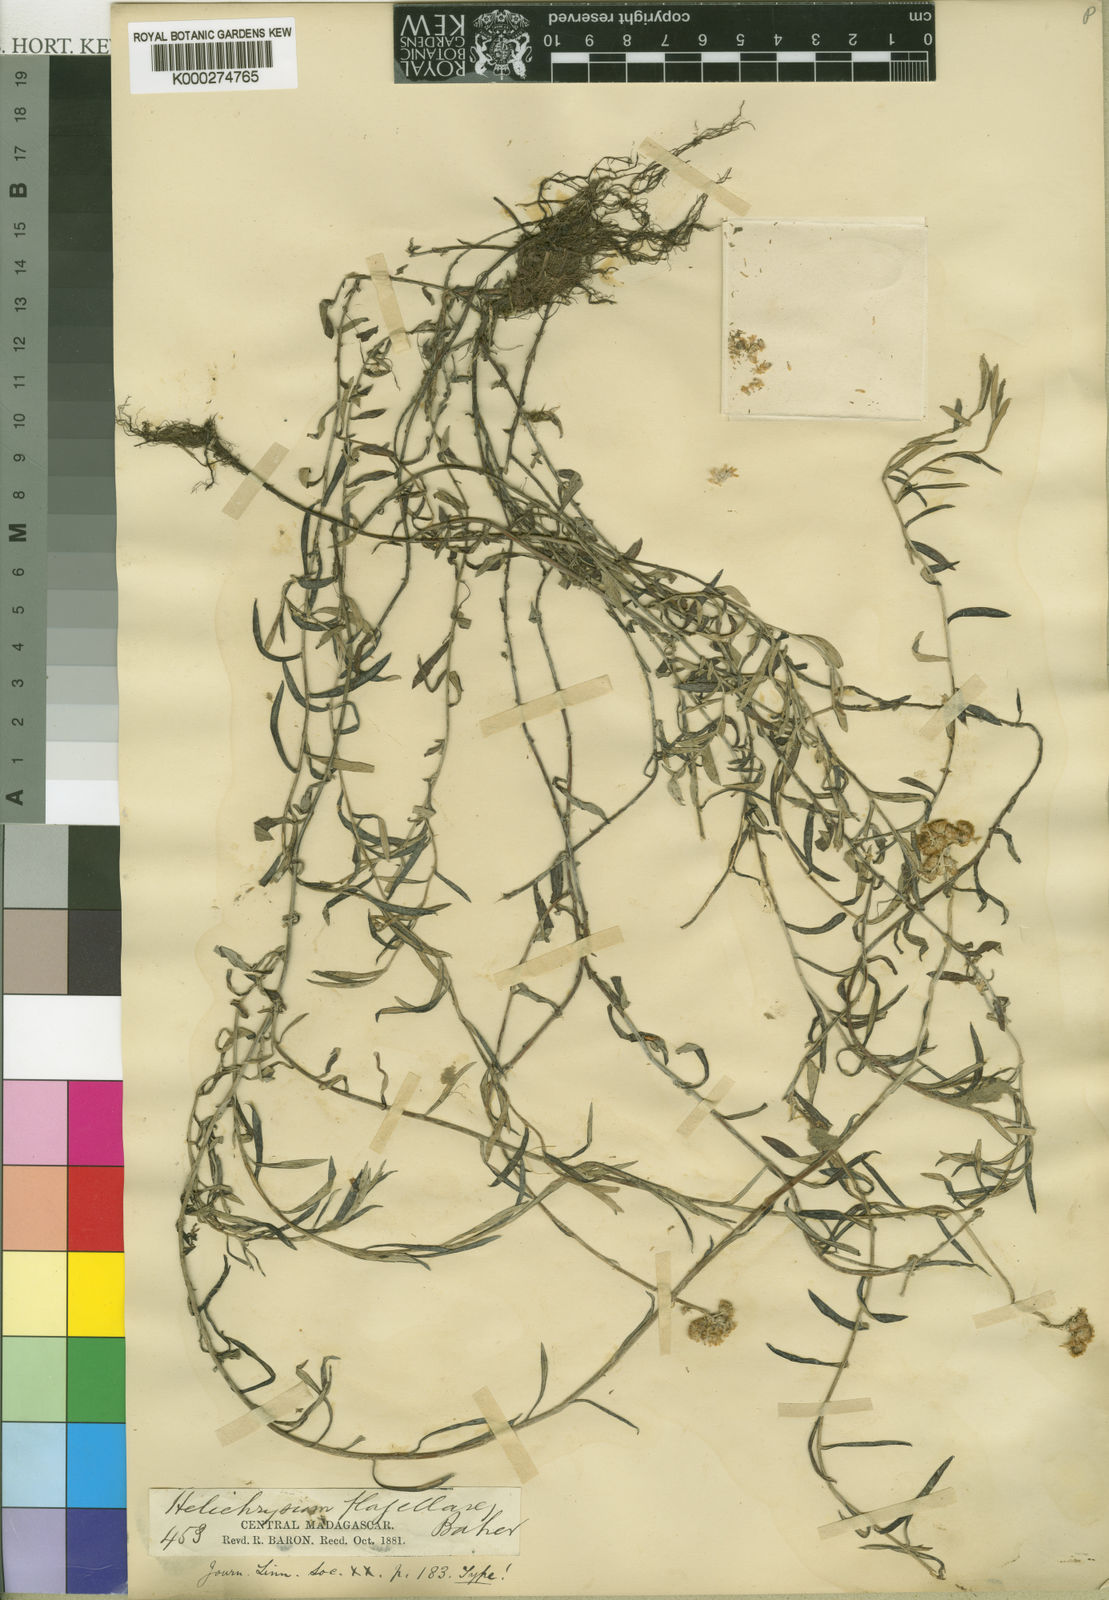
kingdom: Plantae
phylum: Tracheophyta
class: Magnoliopsida
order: Asterales
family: Asteraceae
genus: Helichrysum
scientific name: Helichrysum flagellare
